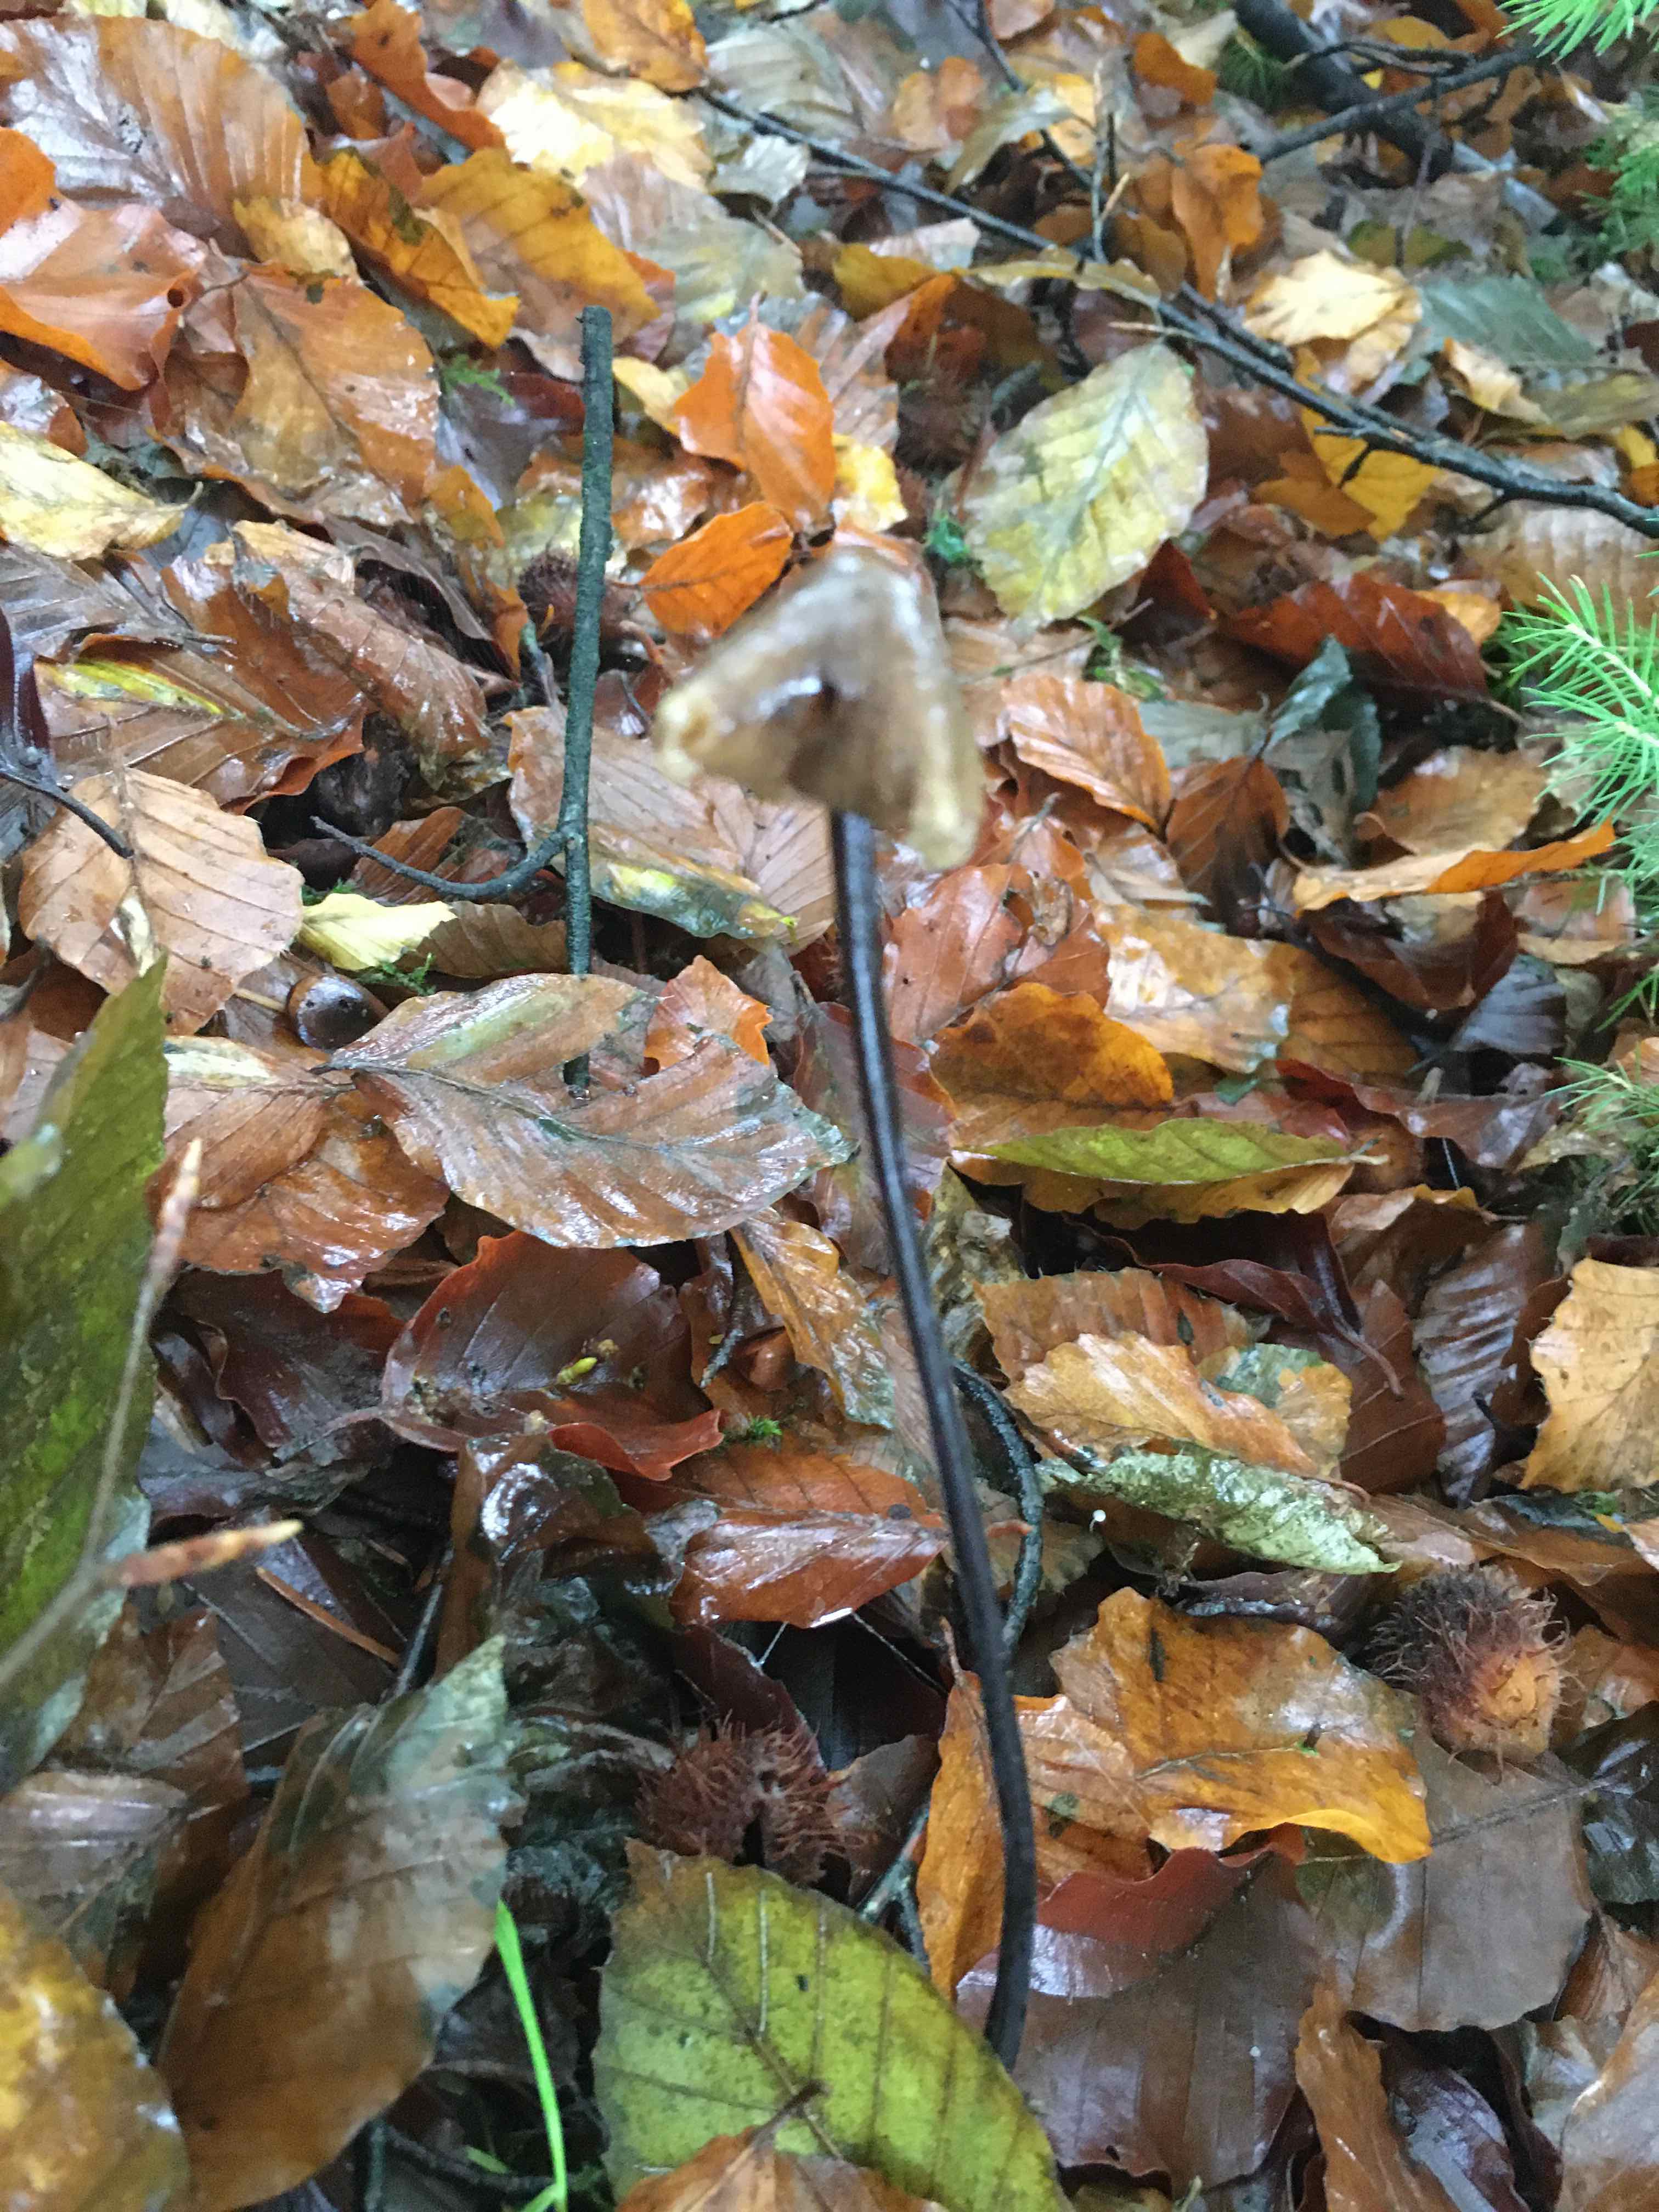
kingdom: Fungi
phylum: Basidiomycota
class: Agaricomycetes
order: Agaricales
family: Mycenaceae
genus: Mycena
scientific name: Mycena
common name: huesvamp
